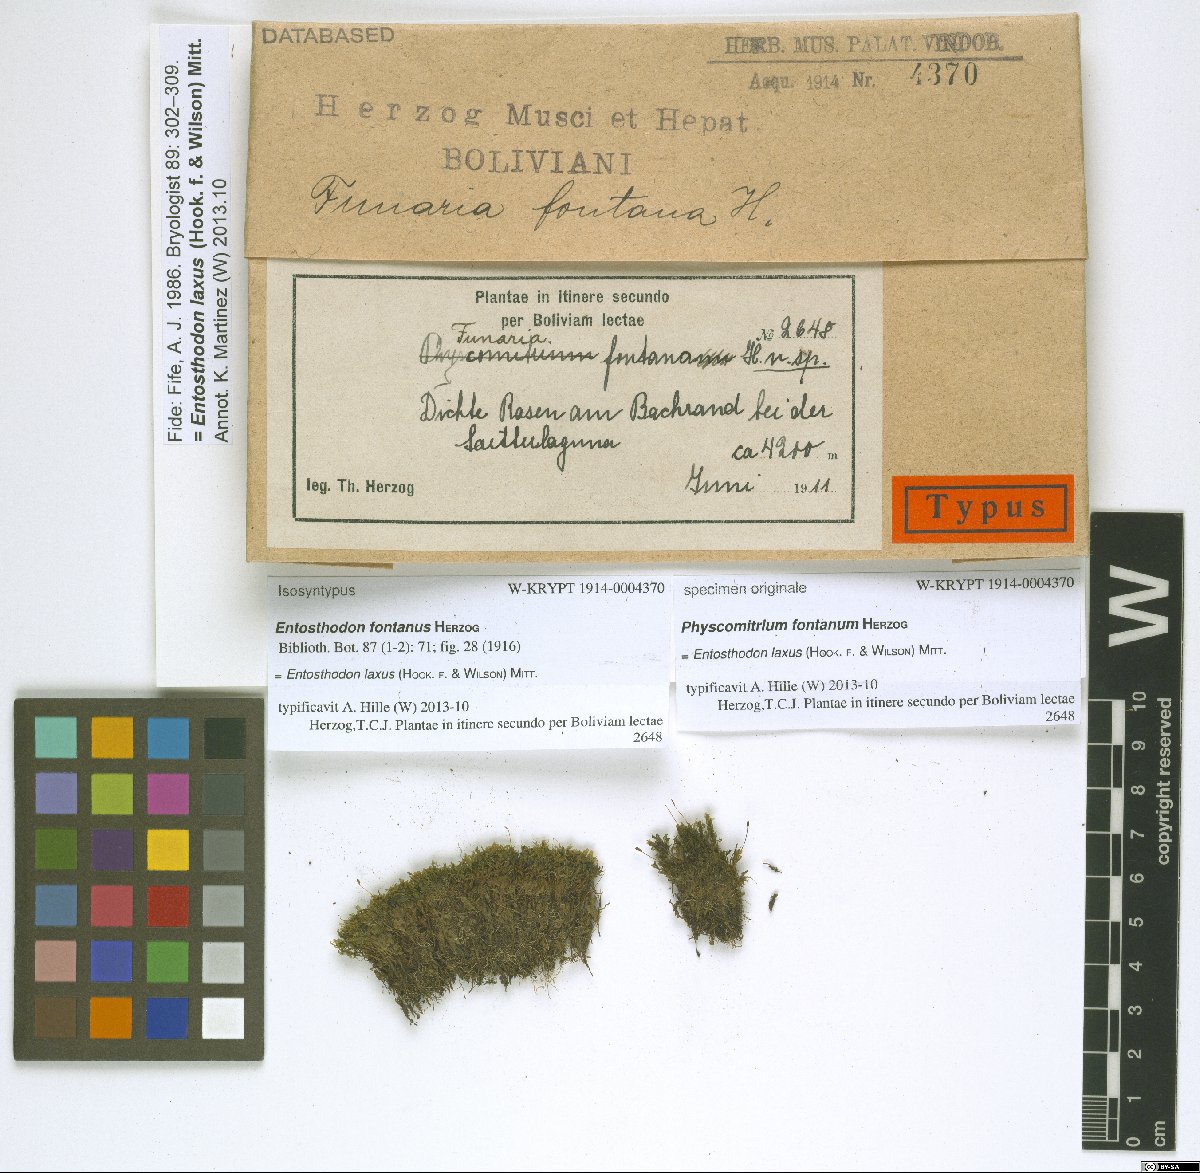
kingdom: Plantae
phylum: Bryophyta
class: Bryopsida
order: Funariales
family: Funariaceae
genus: Entosthodon
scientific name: Entosthodon laxus
